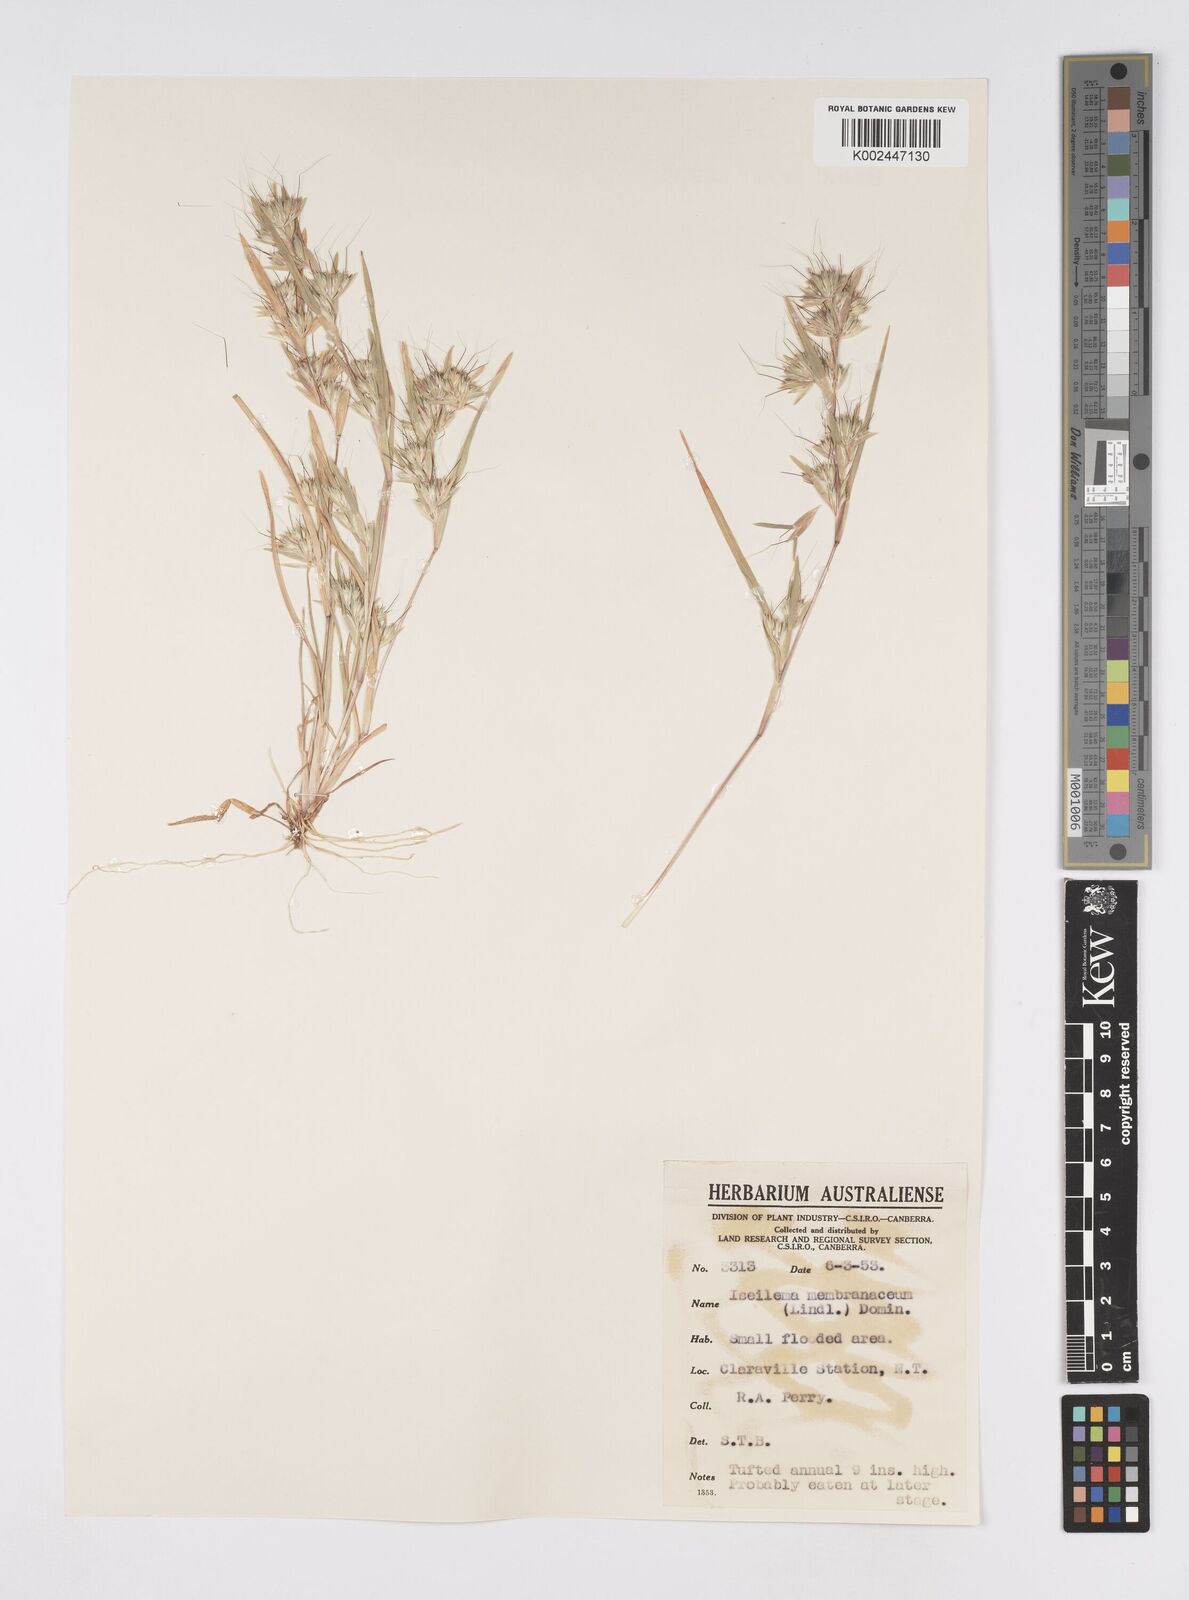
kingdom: Plantae
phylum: Tracheophyta
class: Liliopsida
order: Poales
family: Poaceae
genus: Iseilema
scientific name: Iseilema membranaceum
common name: Small flinders grass
